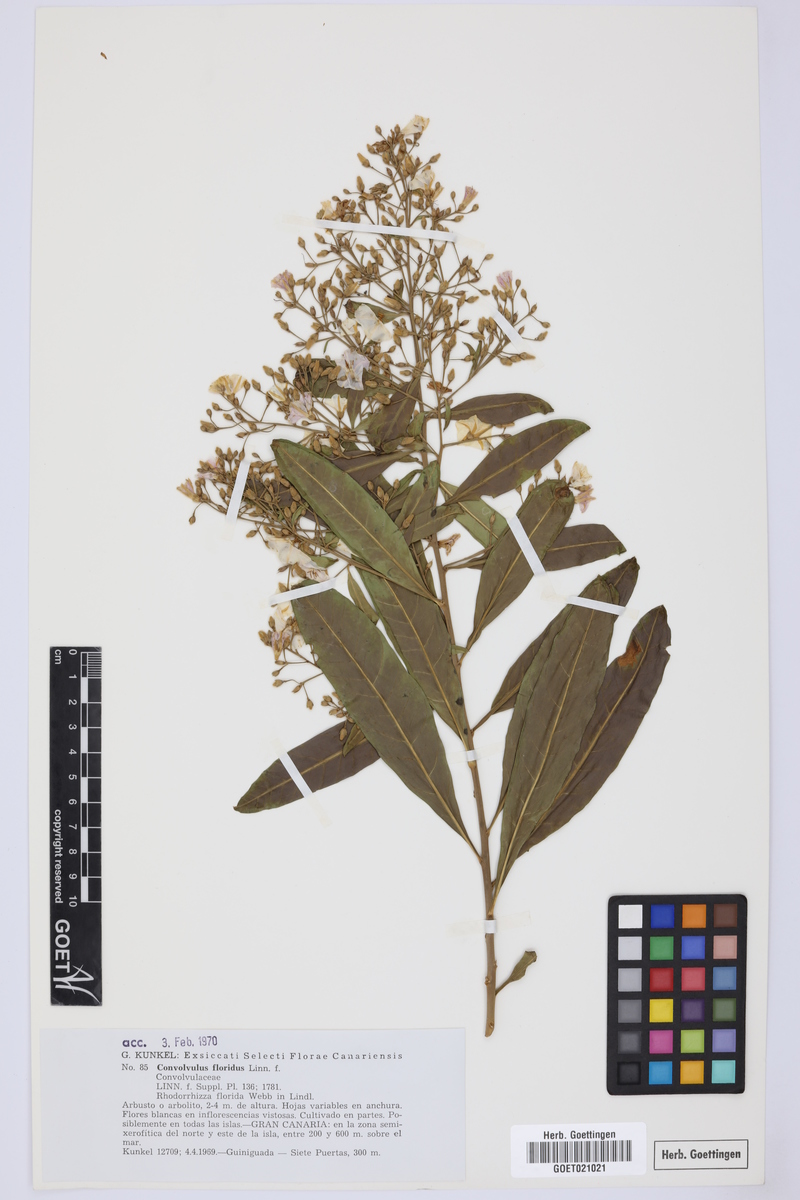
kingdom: Plantae
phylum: Tracheophyta
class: Magnoliopsida
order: Solanales
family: Convolvulaceae
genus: Convolvulus
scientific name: Convolvulus floridus
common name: Guadil
